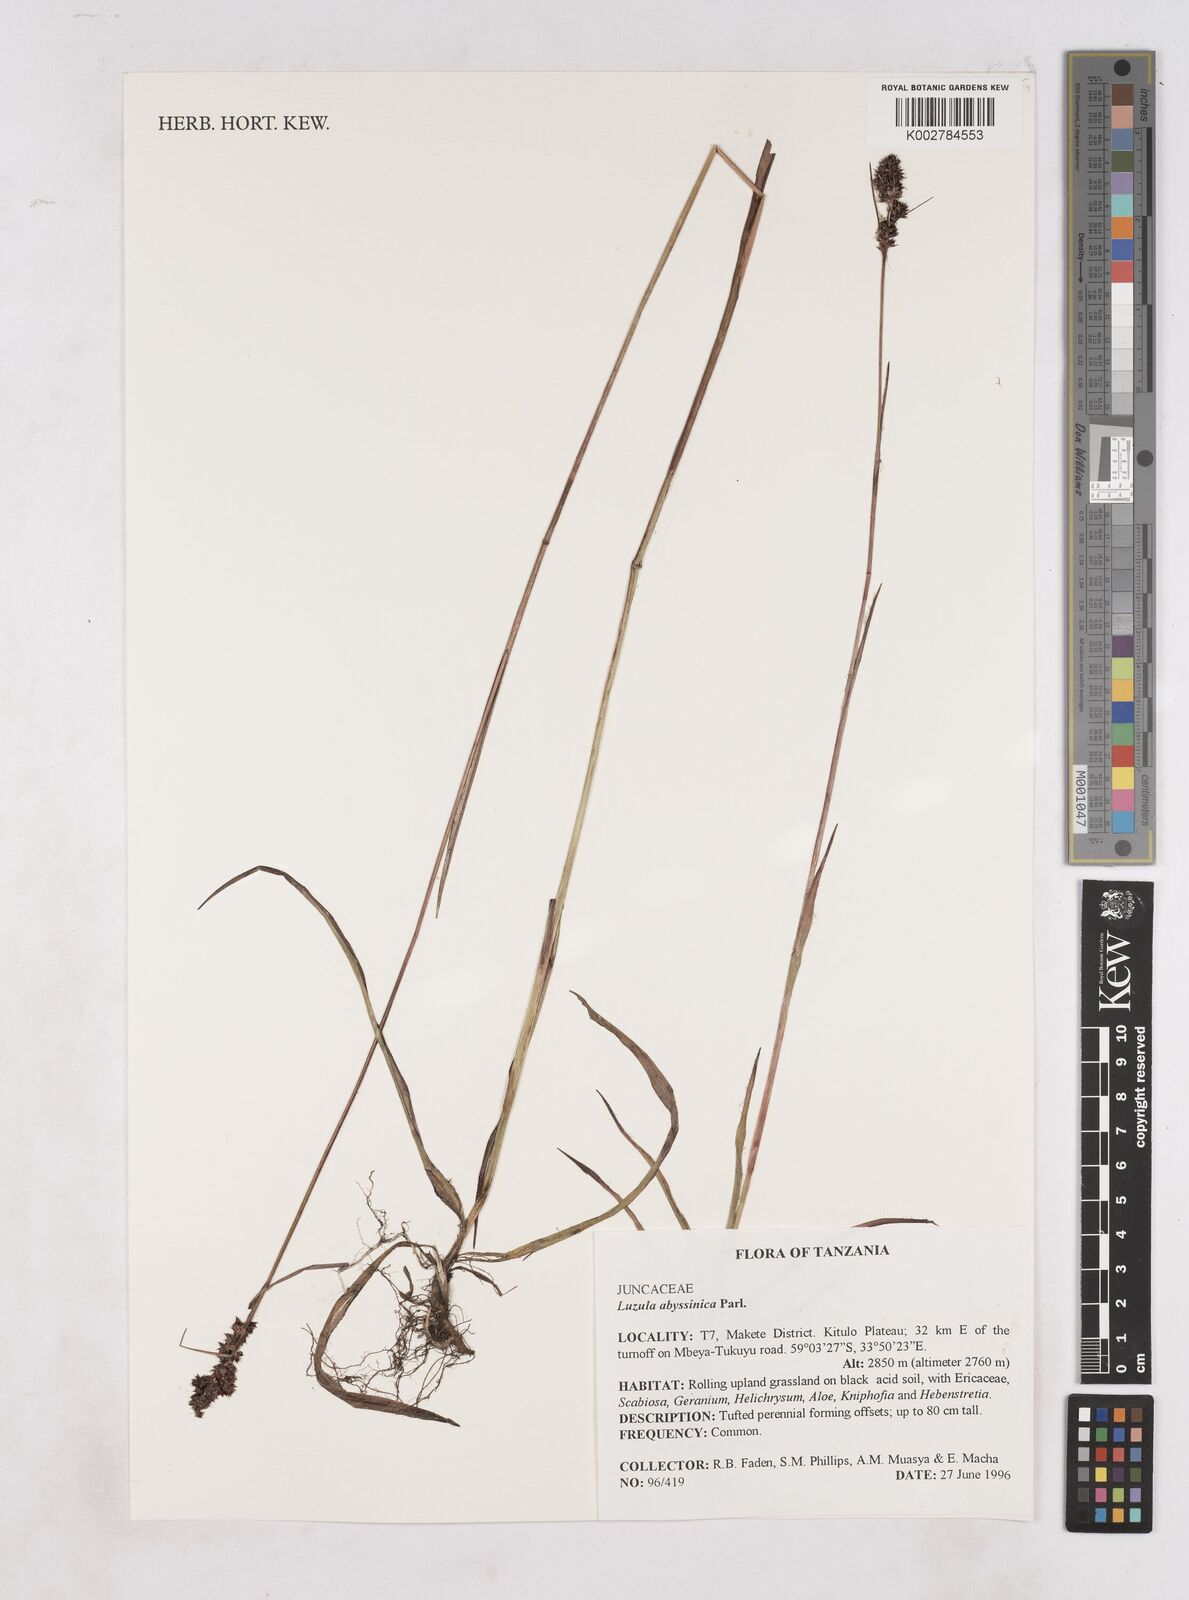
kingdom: Plantae
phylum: Tracheophyta
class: Liliopsida
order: Poales
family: Juncaceae
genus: Luzula
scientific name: Luzula abyssinica
